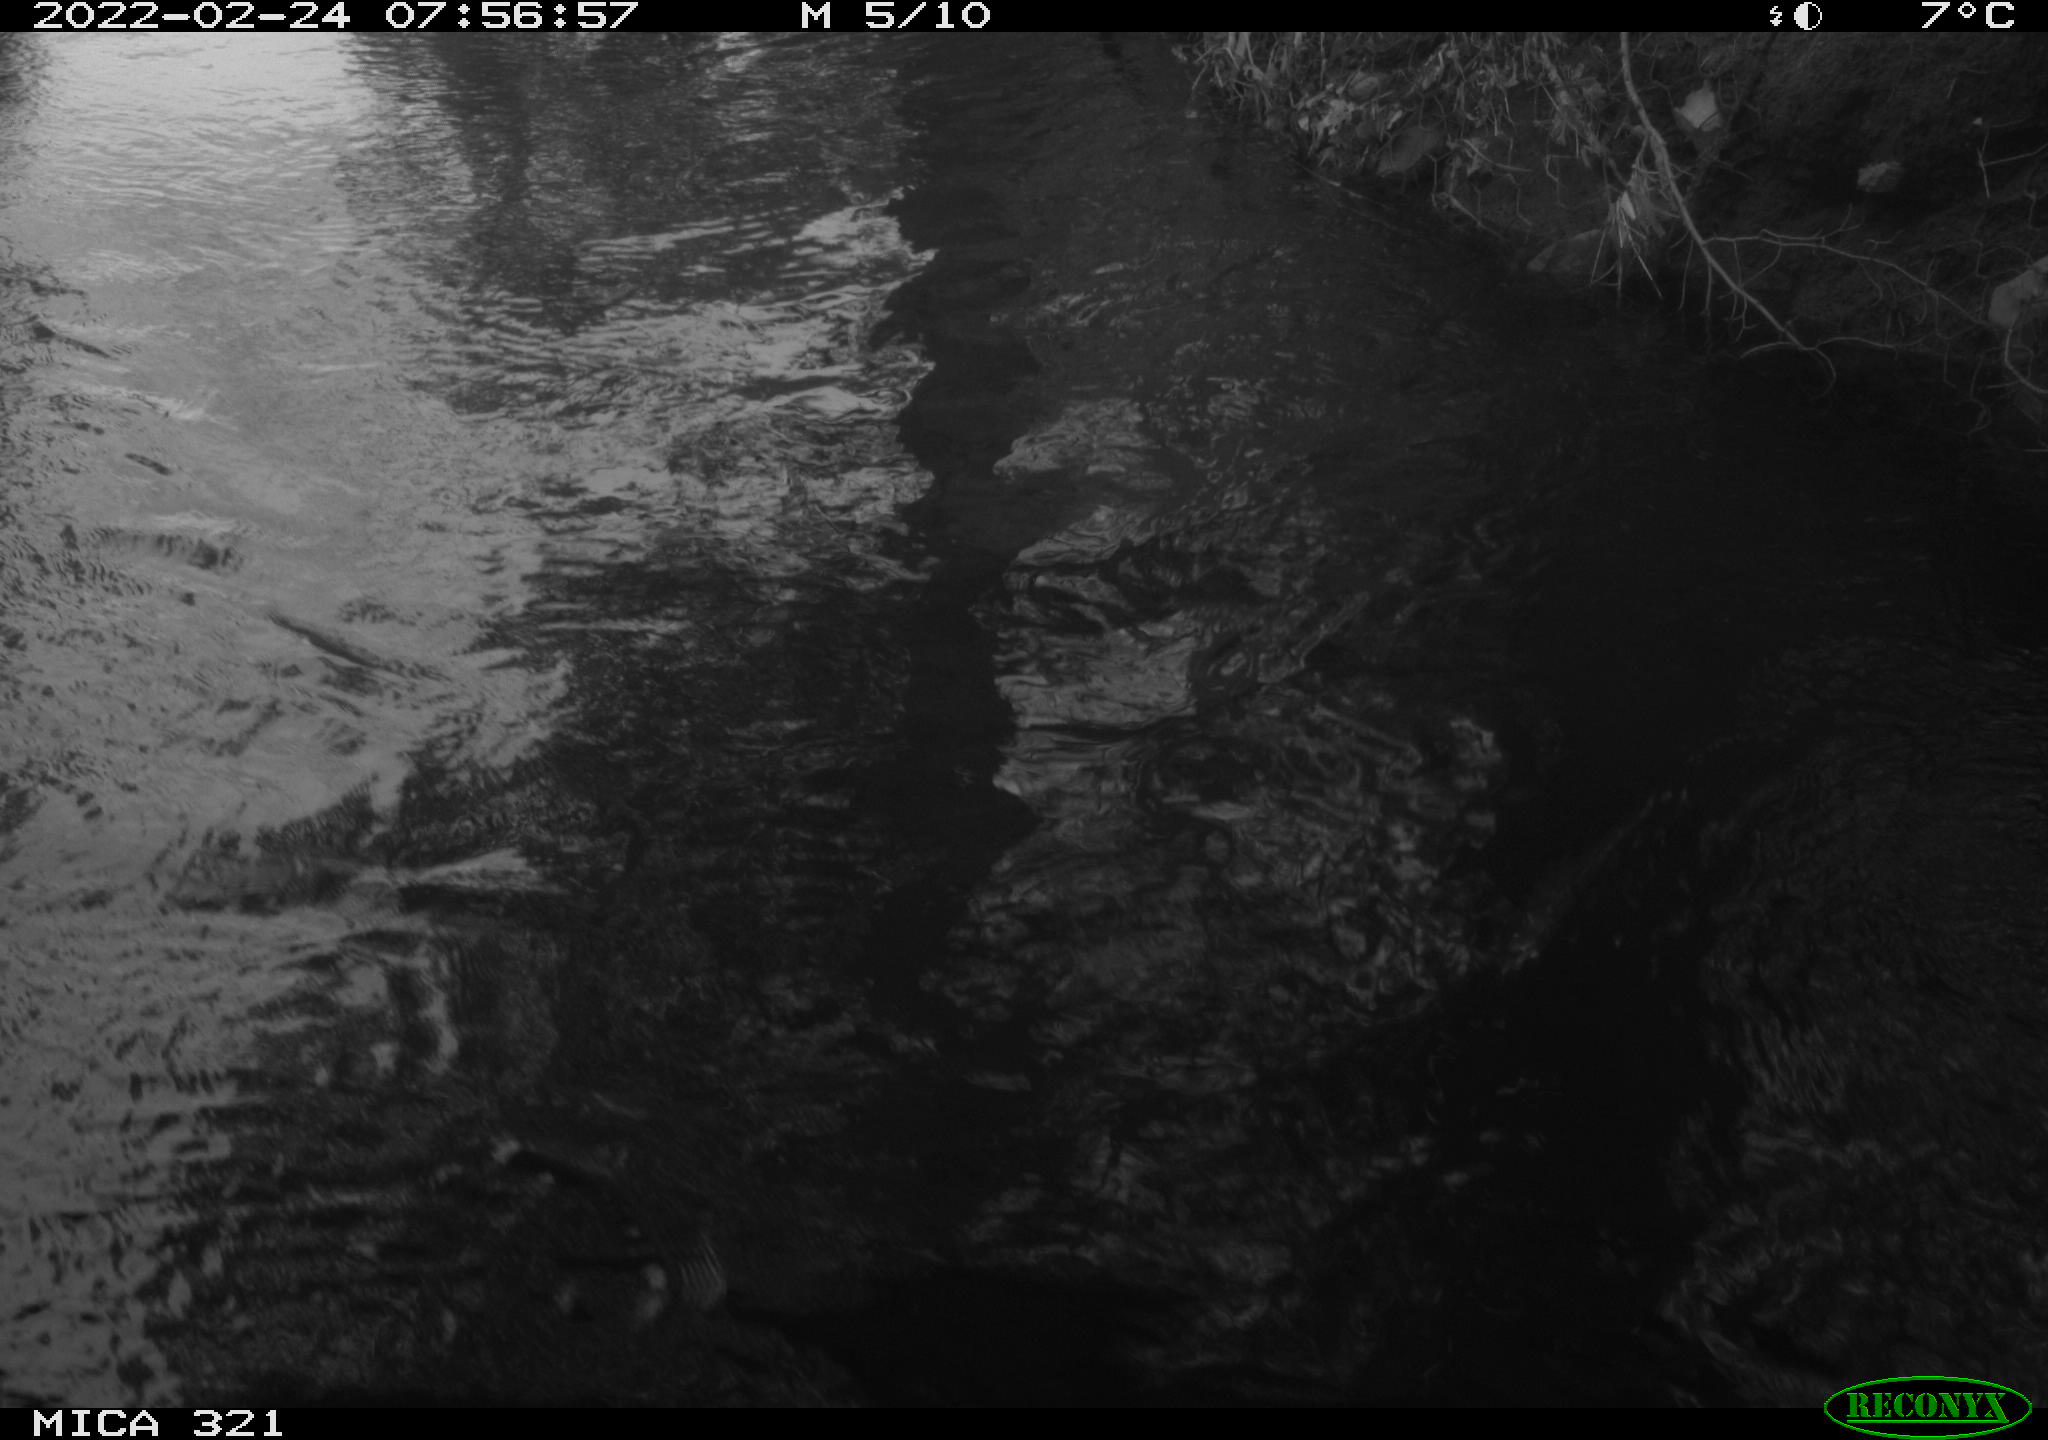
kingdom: Animalia
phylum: Chordata
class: Aves
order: Anseriformes
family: Anatidae
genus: Anas
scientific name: Anas platyrhynchos
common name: Mallard
